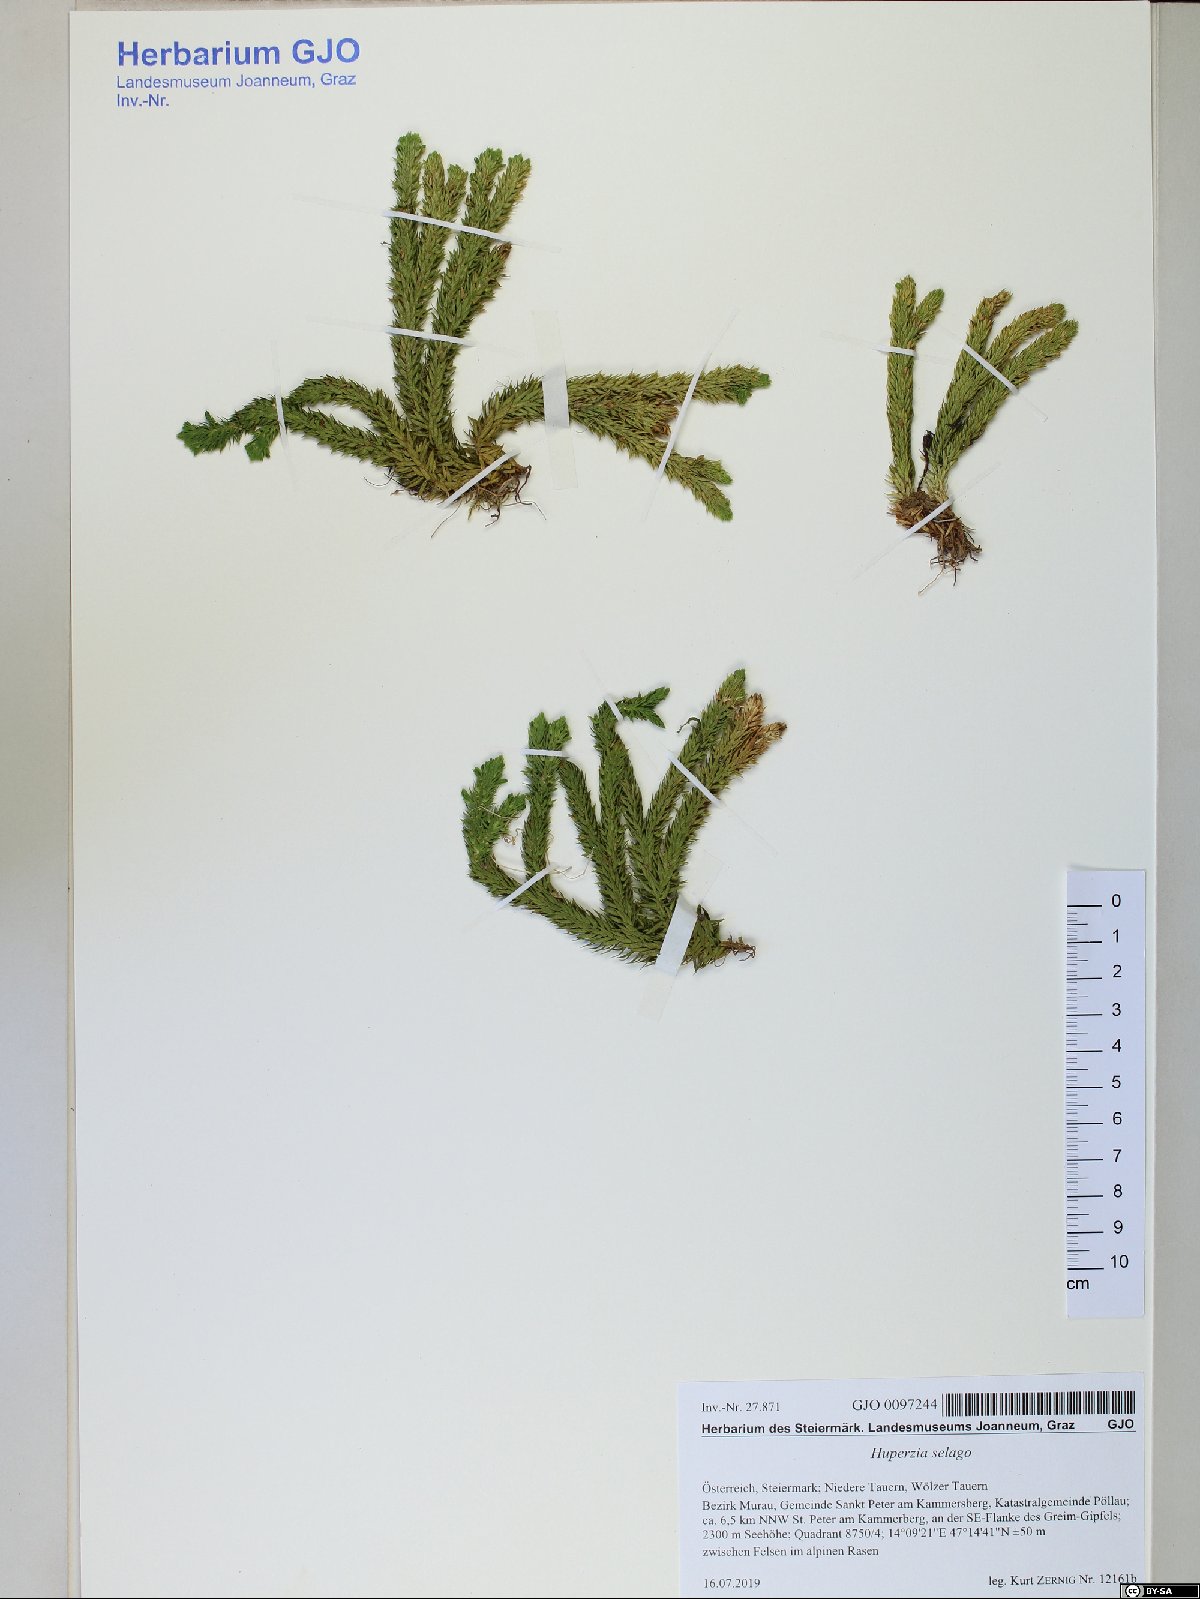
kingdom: Plantae
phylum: Tracheophyta
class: Lycopodiopsida
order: Lycopodiales
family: Lycopodiaceae
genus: Huperzia
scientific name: Huperzia selago
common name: Northern firmoss
